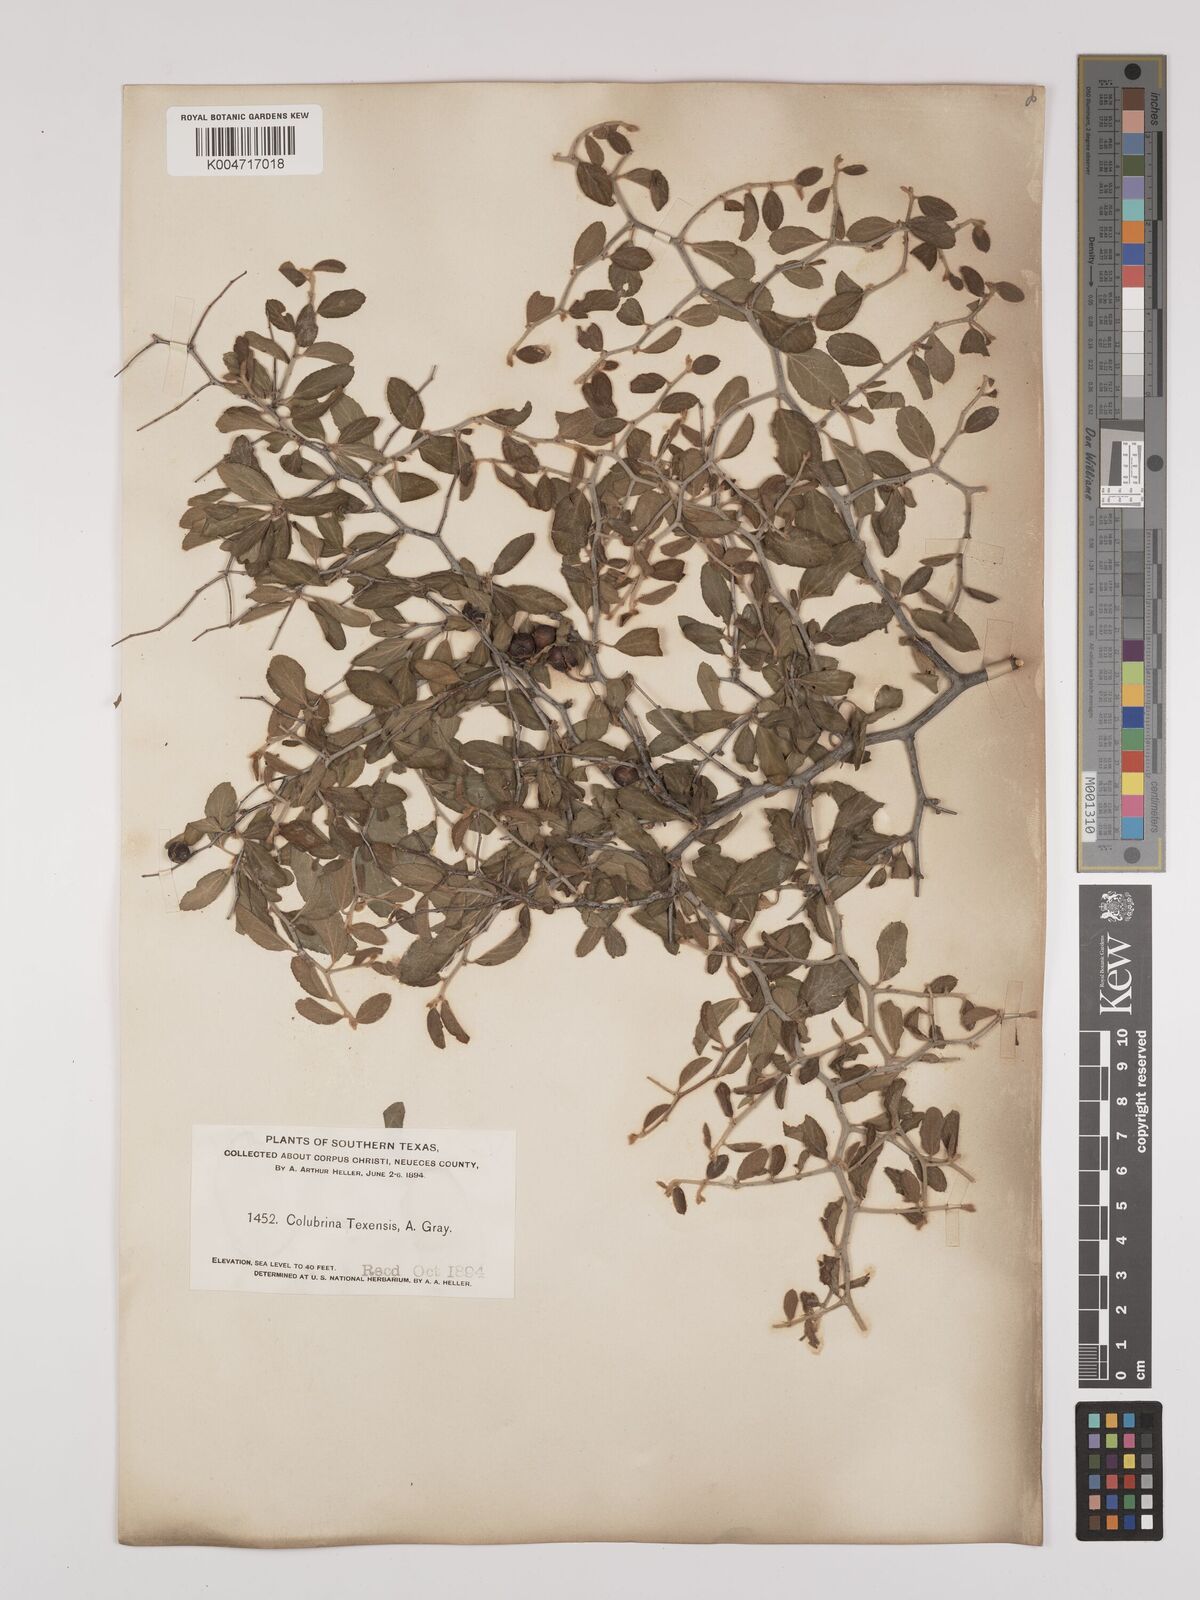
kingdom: Plantae
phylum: Tracheophyta
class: Magnoliopsida
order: Rosales
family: Rhamnaceae
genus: Colubrina
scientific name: Colubrina texensis
